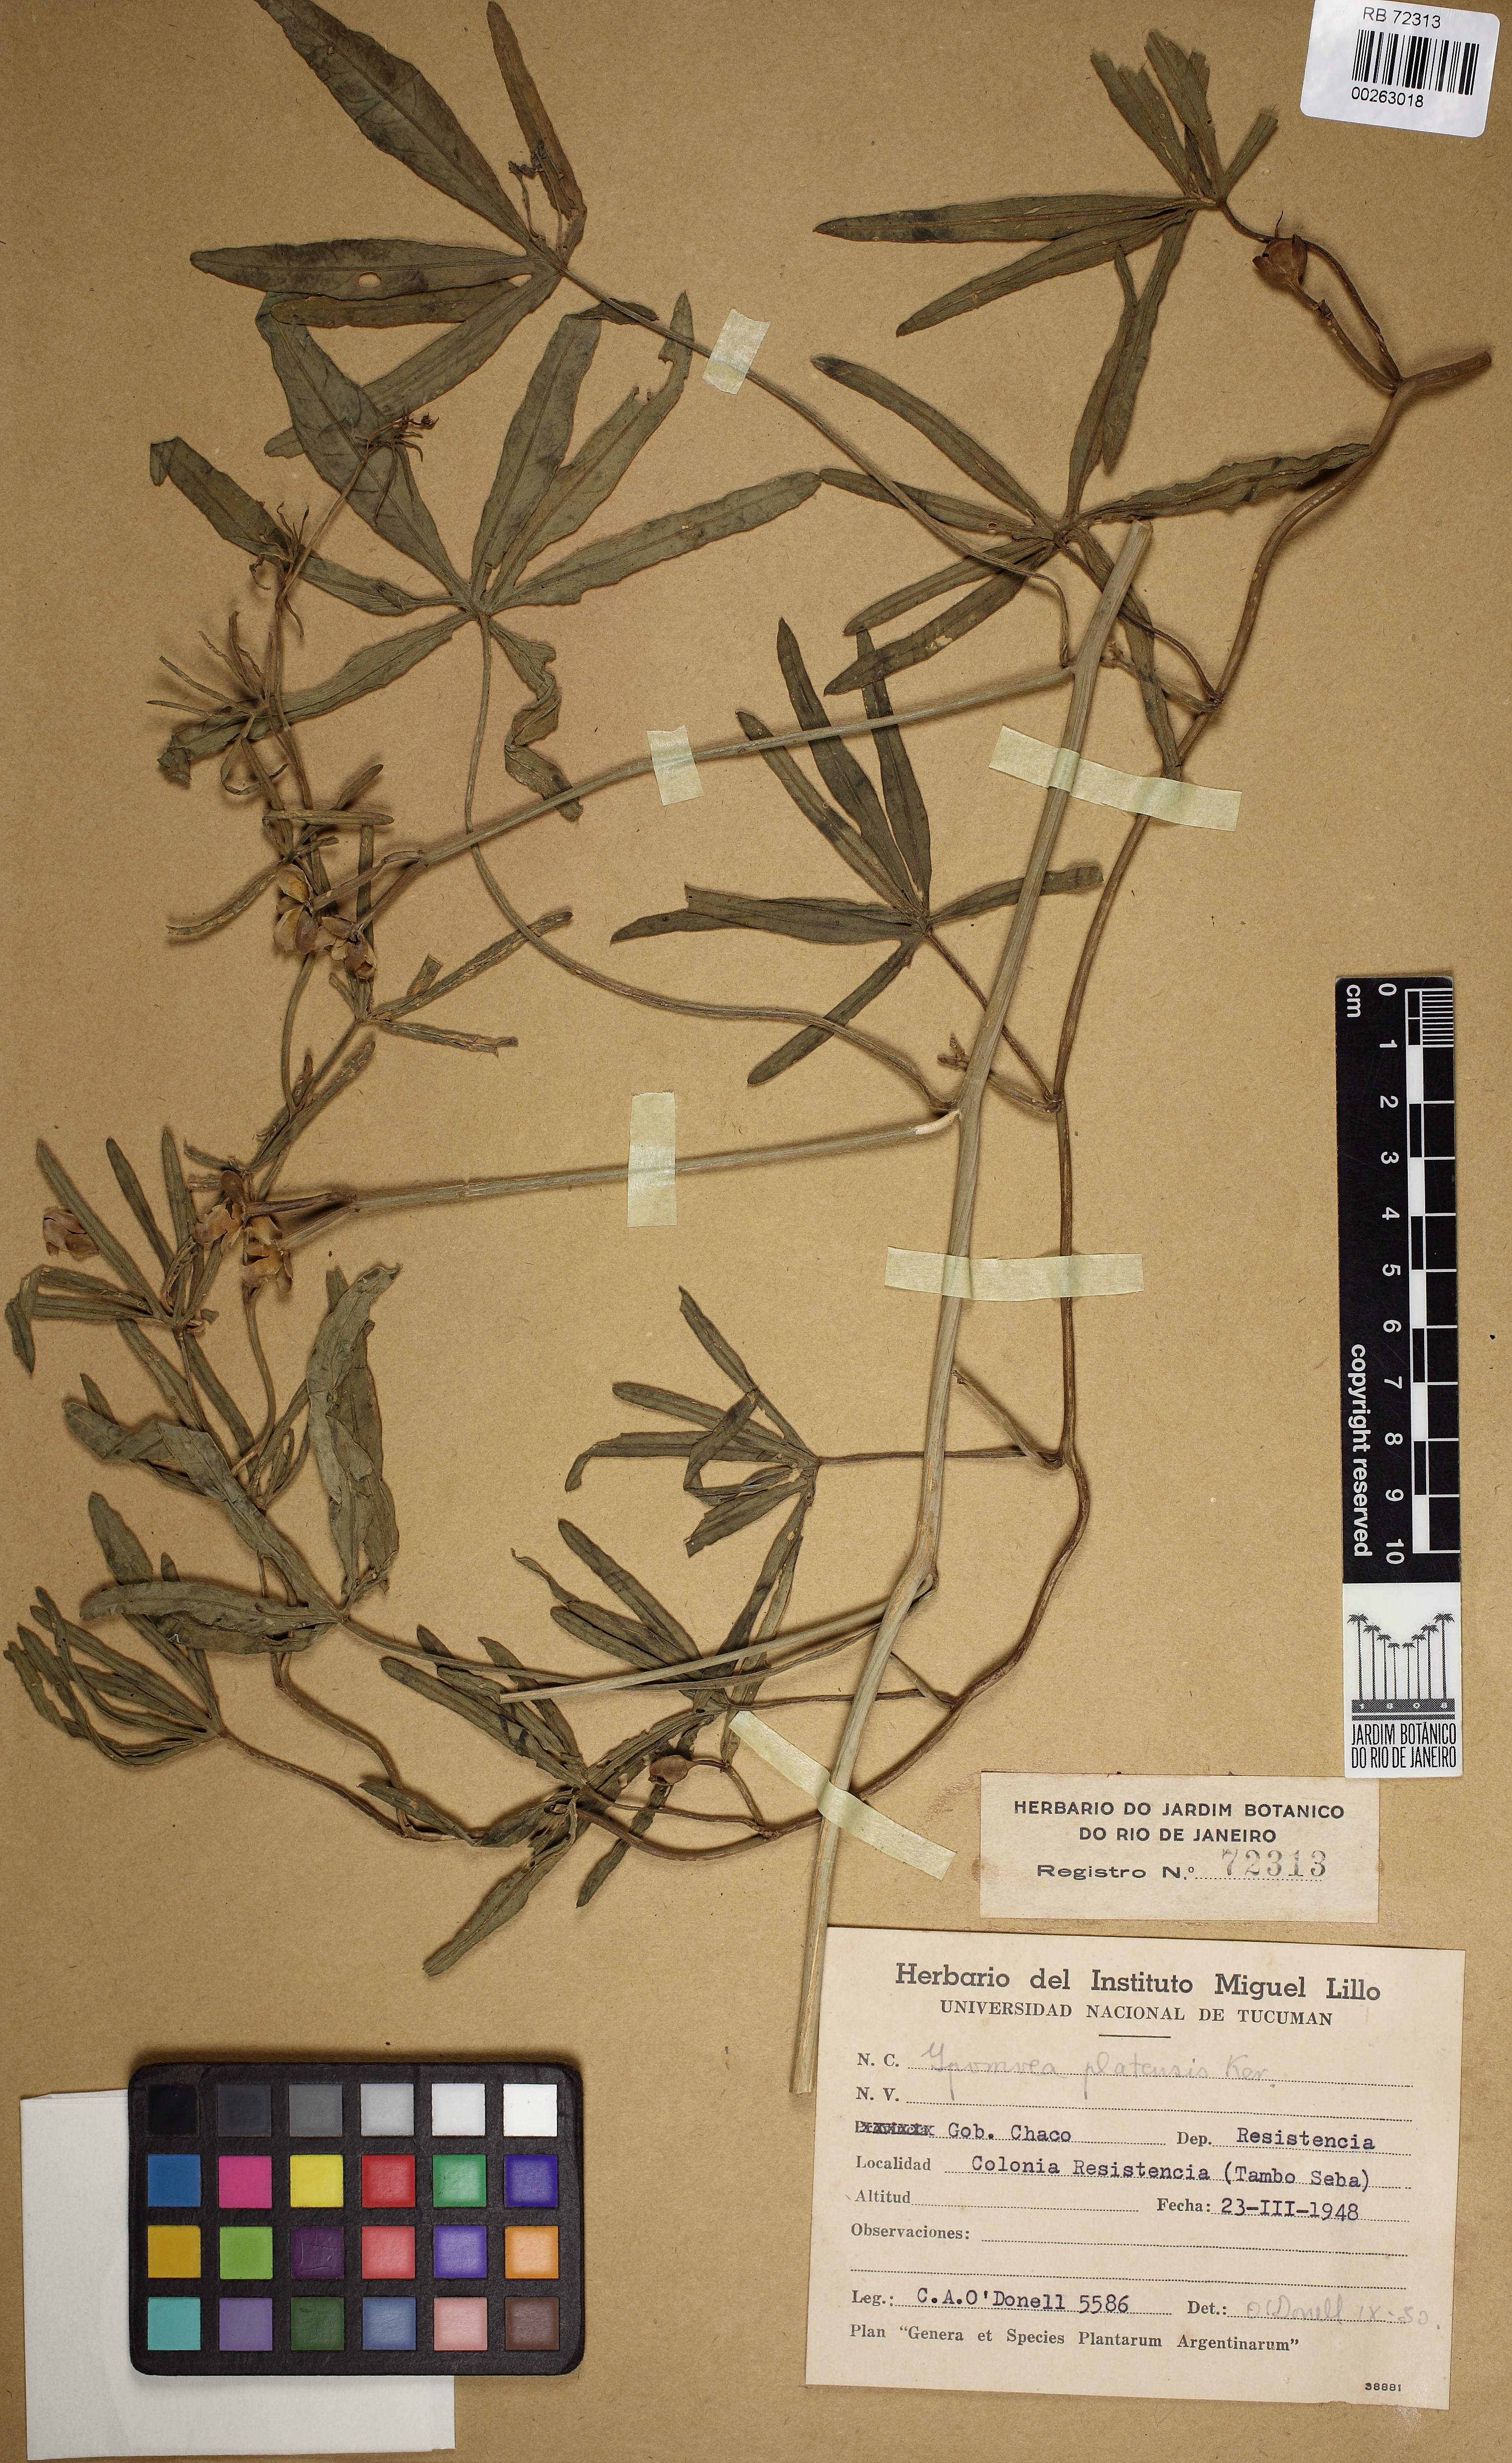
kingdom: Plantae
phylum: Tracheophyta
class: Magnoliopsida
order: Solanales
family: Convolvulaceae
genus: Ipomoea
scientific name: Ipomoea platensis
